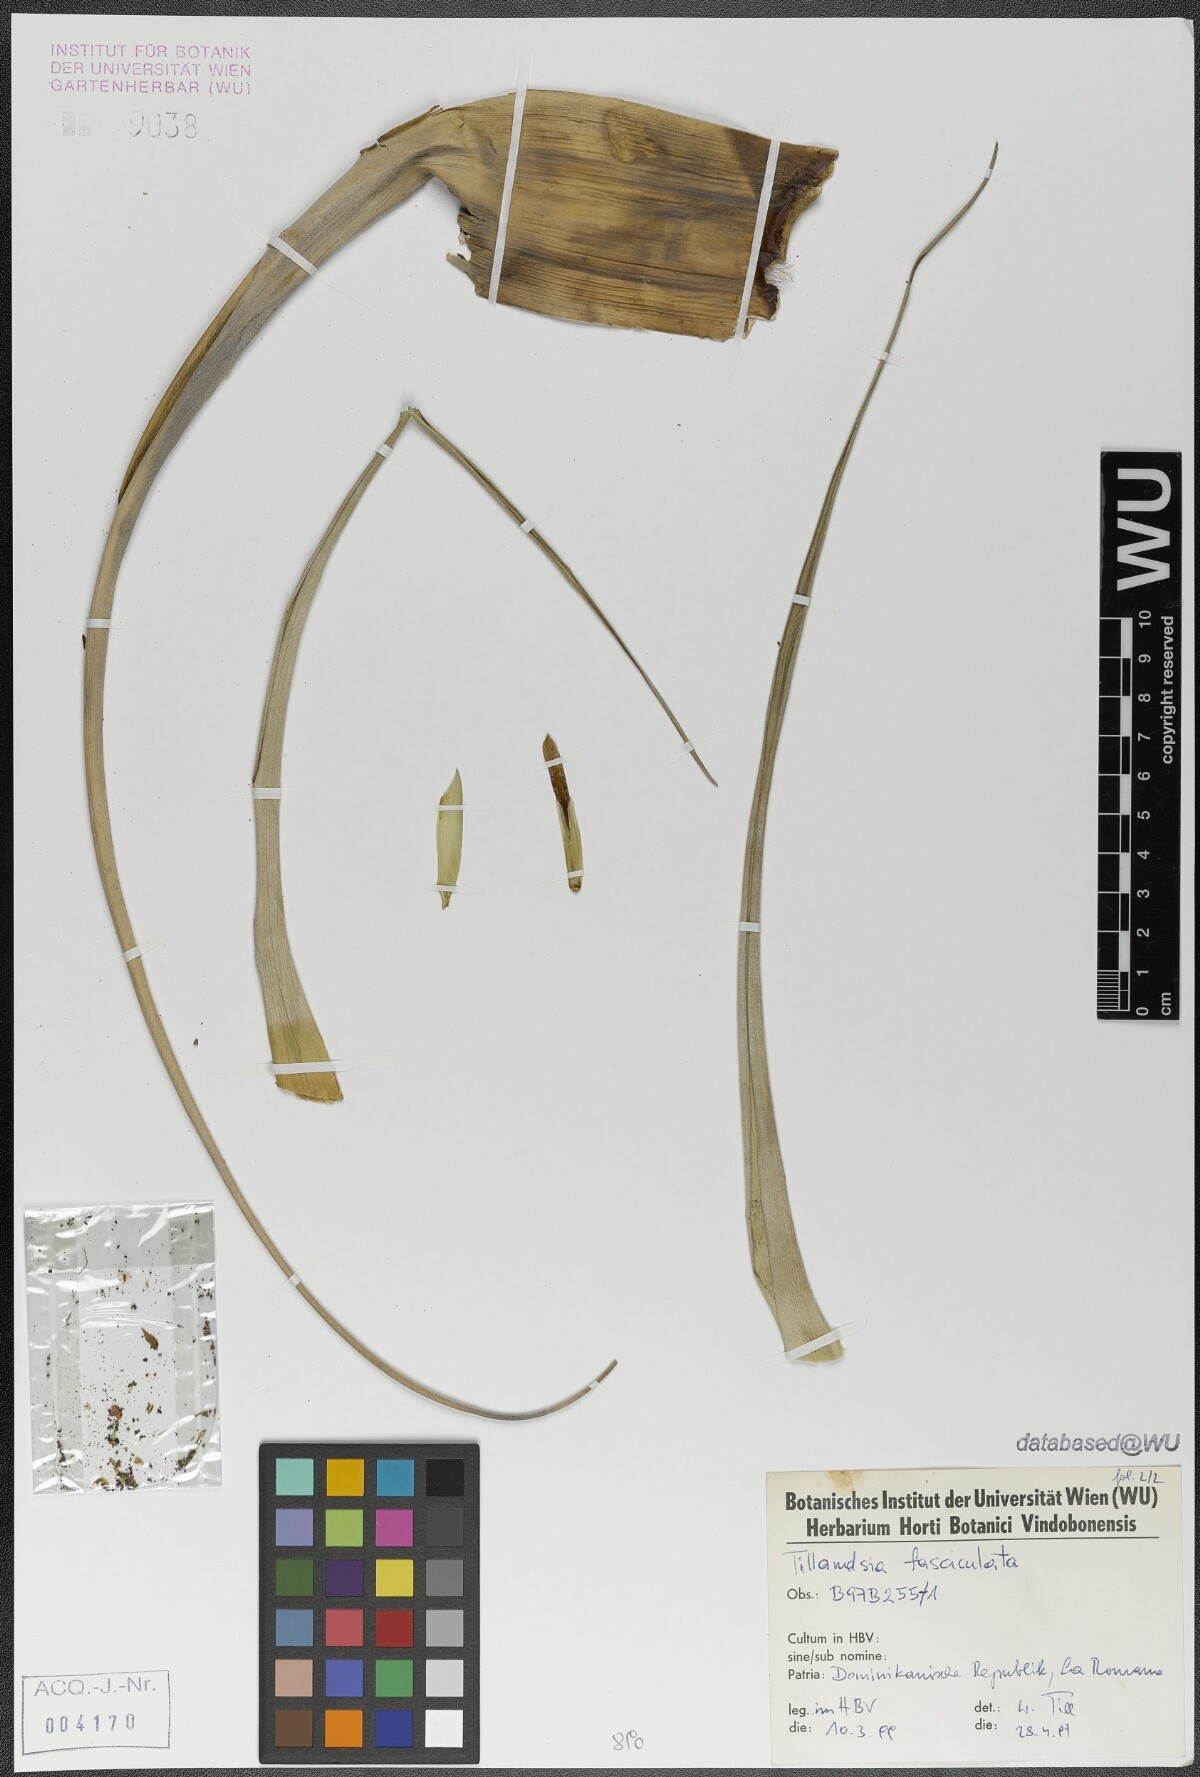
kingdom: Plantae
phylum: Tracheophyta
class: Liliopsida
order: Poales
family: Bromeliaceae
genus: Tillandsia
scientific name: Tillandsia fasciculata
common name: Giant airplant
